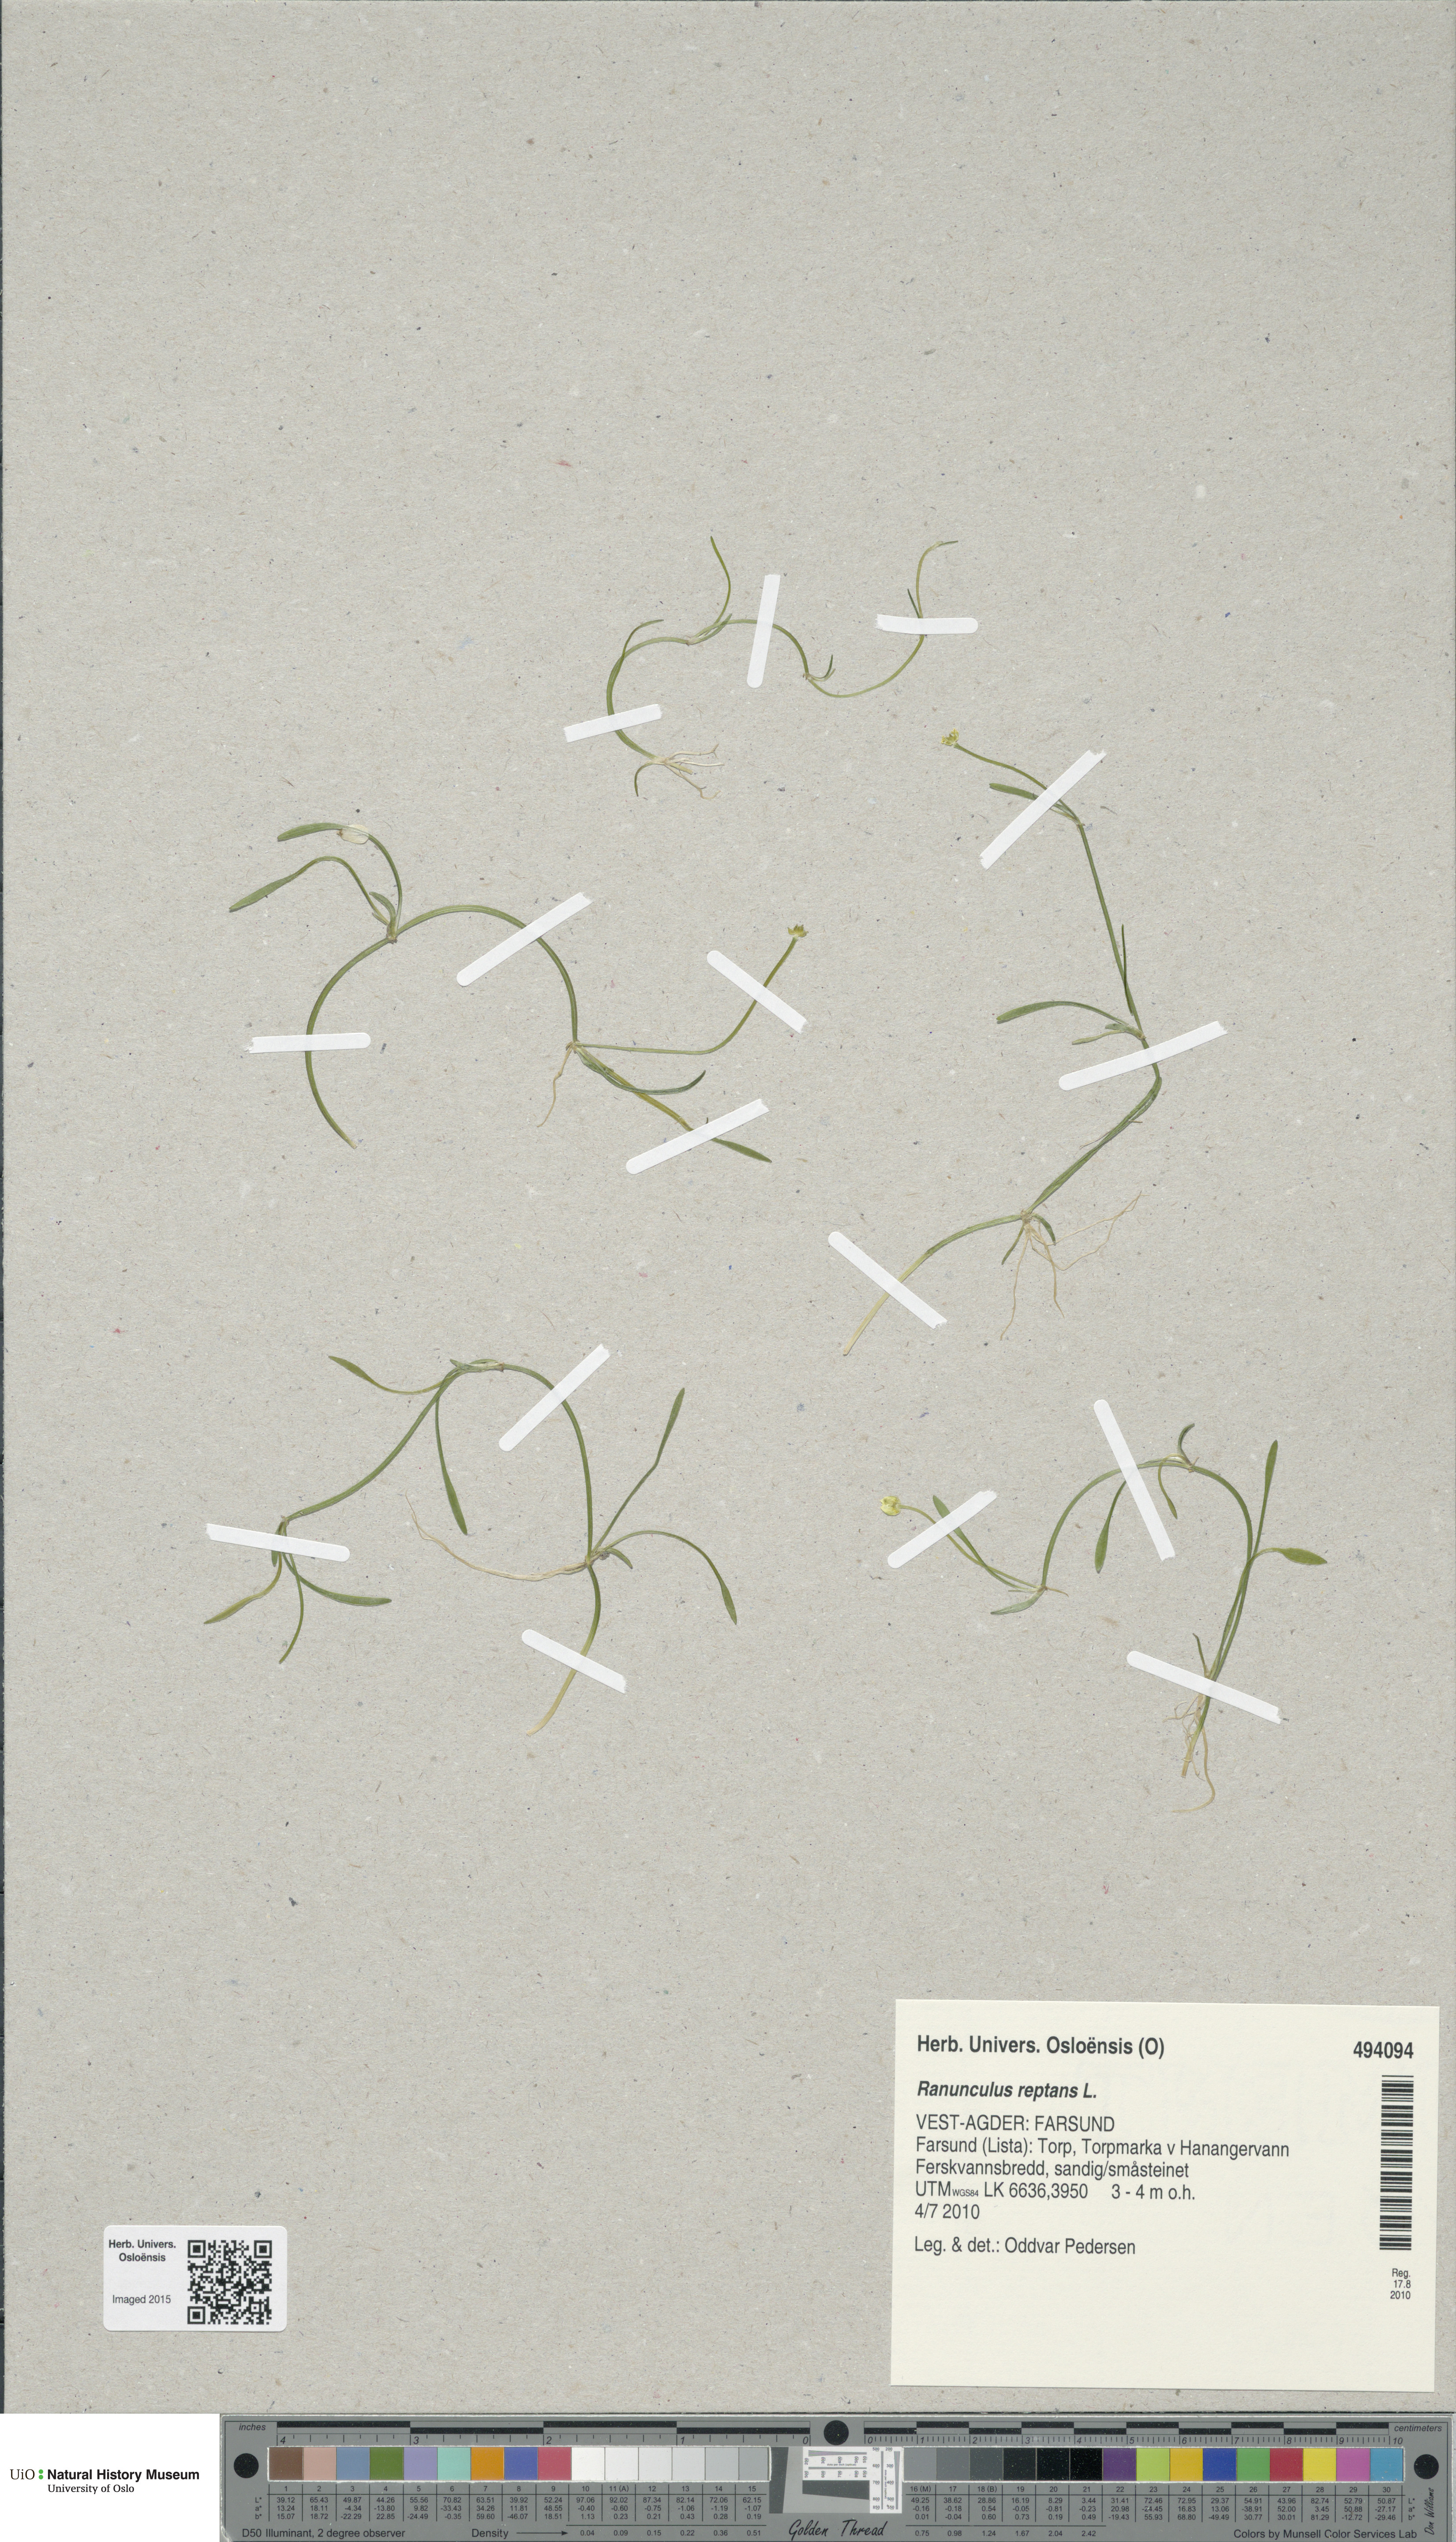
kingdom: Plantae
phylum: Tracheophyta
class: Magnoliopsida
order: Ranunculales
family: Ranunculaceae
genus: Ranunculus
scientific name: Ranunculus reptans
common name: Creeping spearwort
